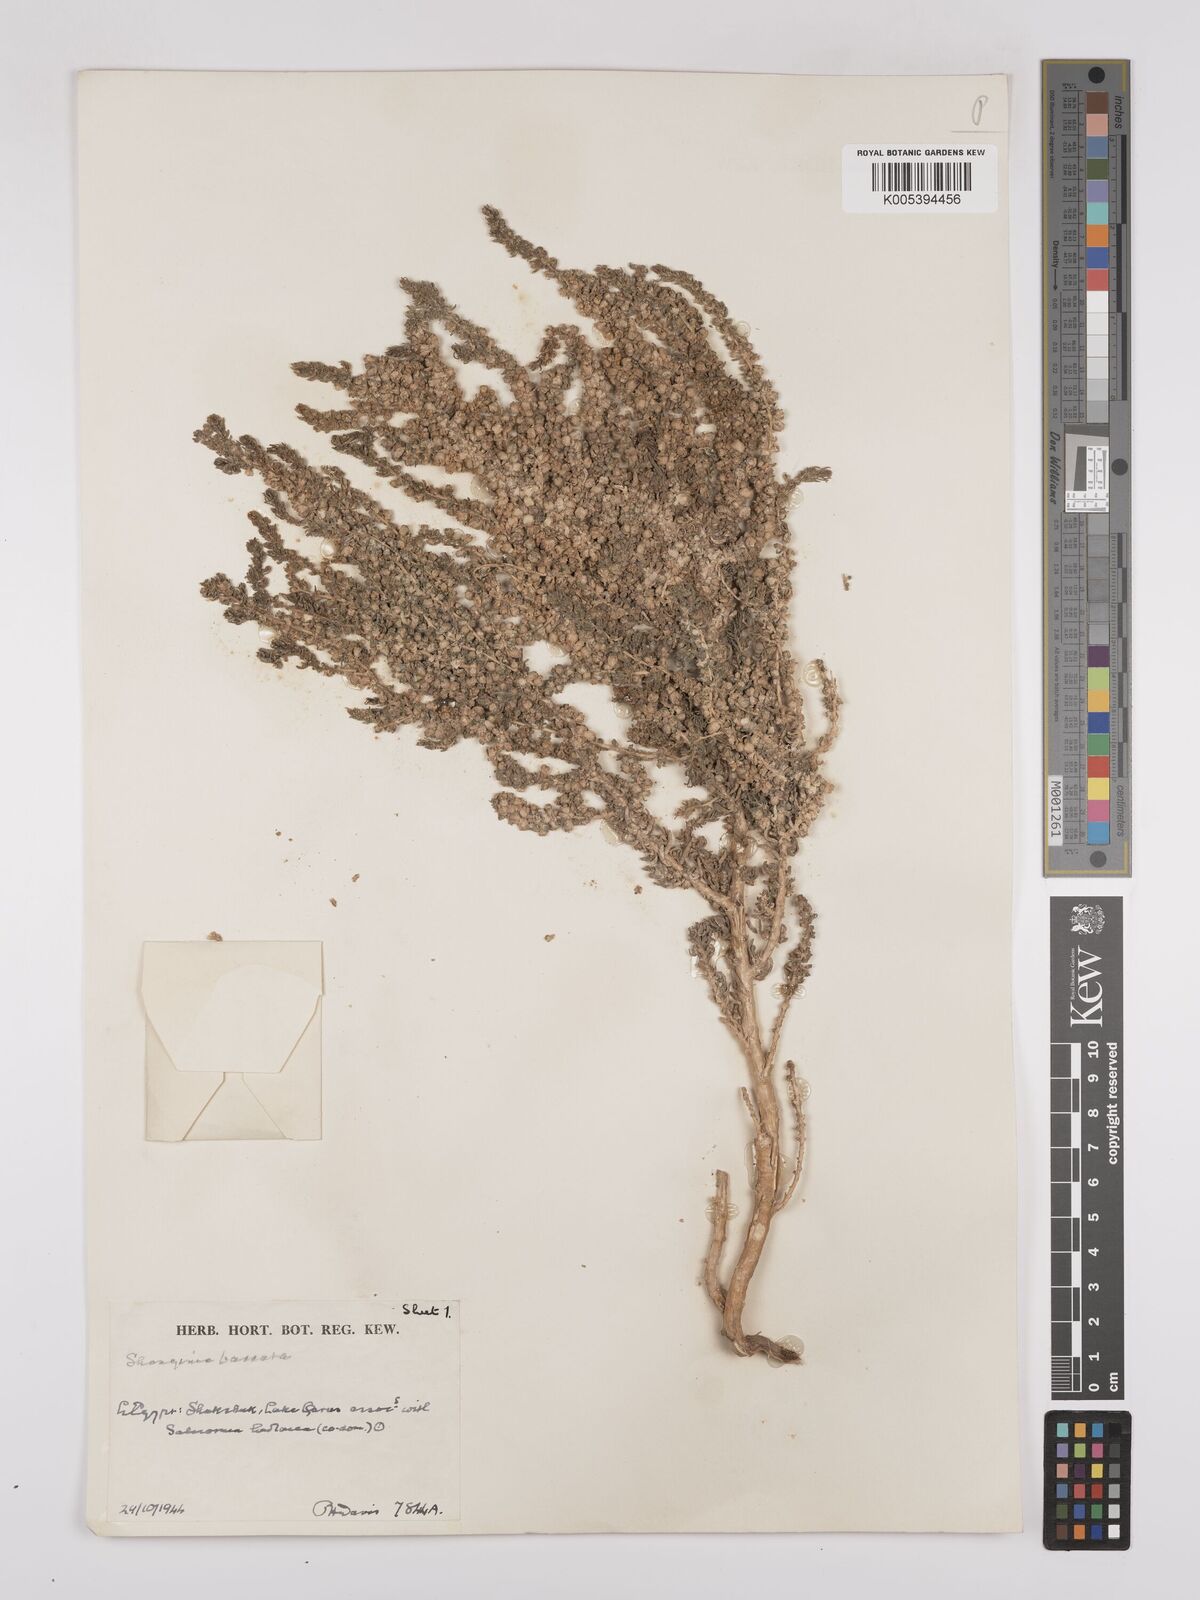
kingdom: Plantae
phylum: Tracheophyta
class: Magnoliopsida
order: Caryophyllales
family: Amaranthaceae
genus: Suaeda
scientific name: Suaeda aegyptiaca
